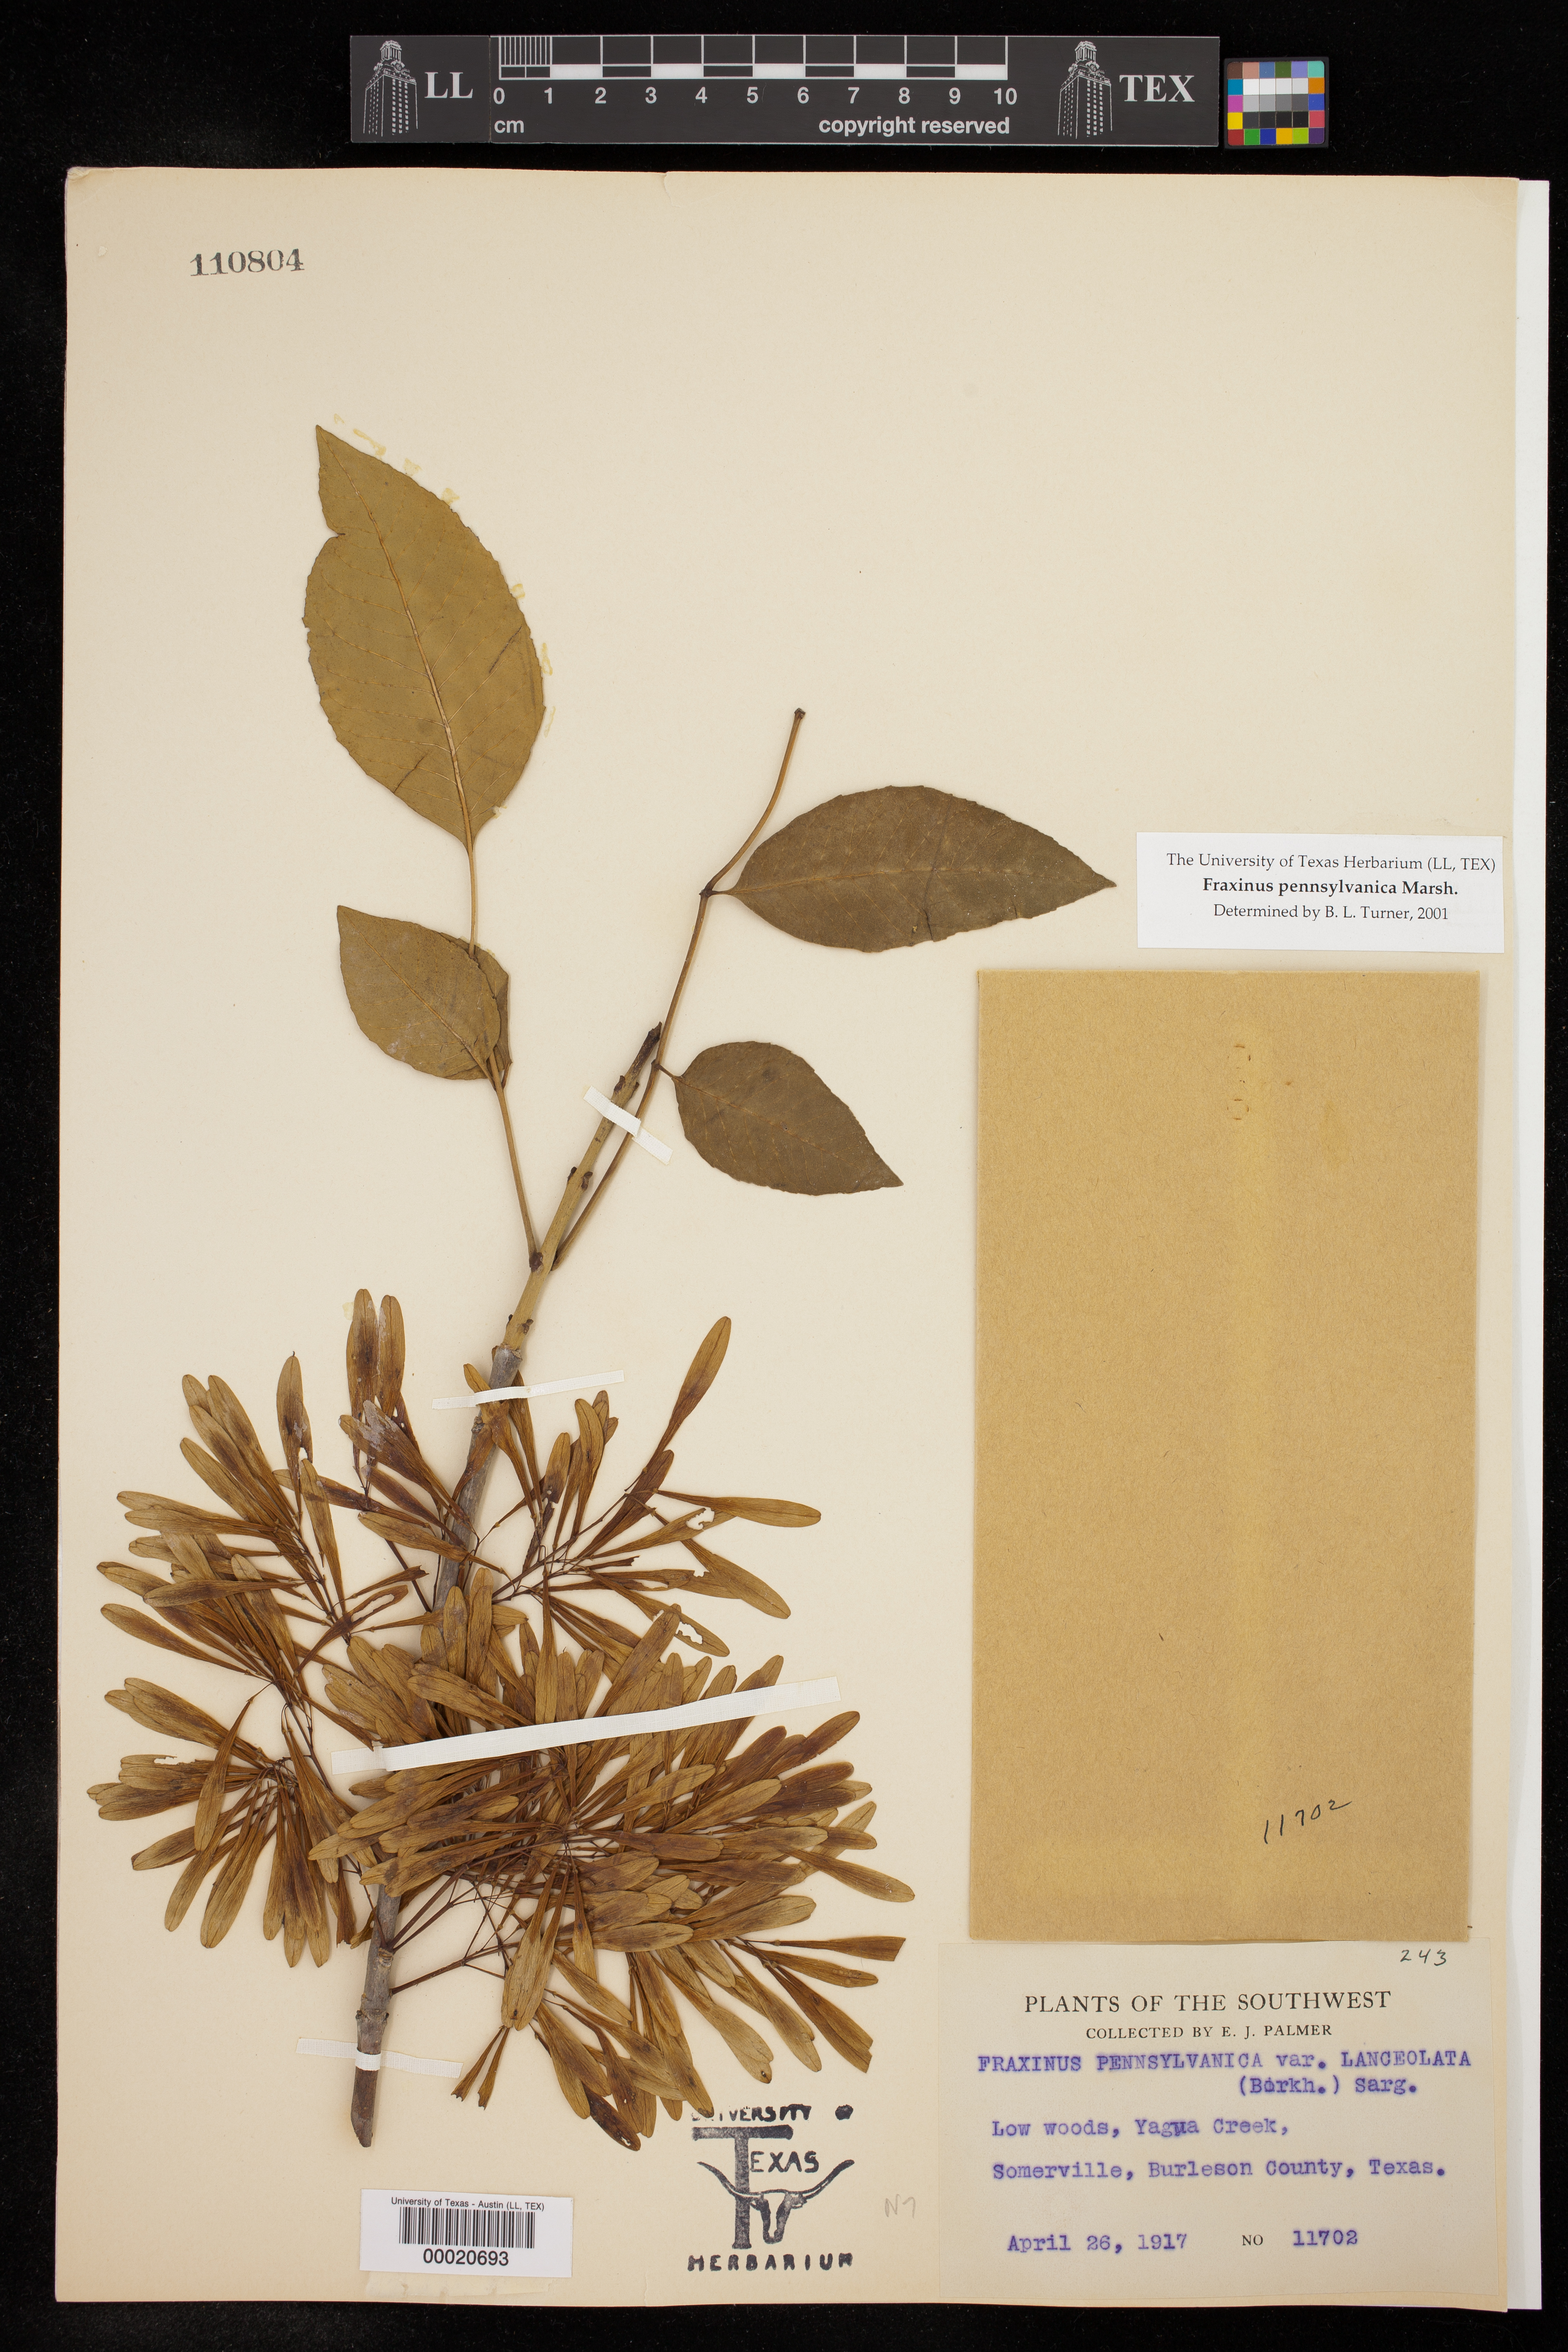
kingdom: Plantae
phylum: Tracheophyta
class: Magnoliopsida
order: Lamiales
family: Oleaceae
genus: Fraxinus
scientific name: Fraxinus pennsylvanica
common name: Green ash
